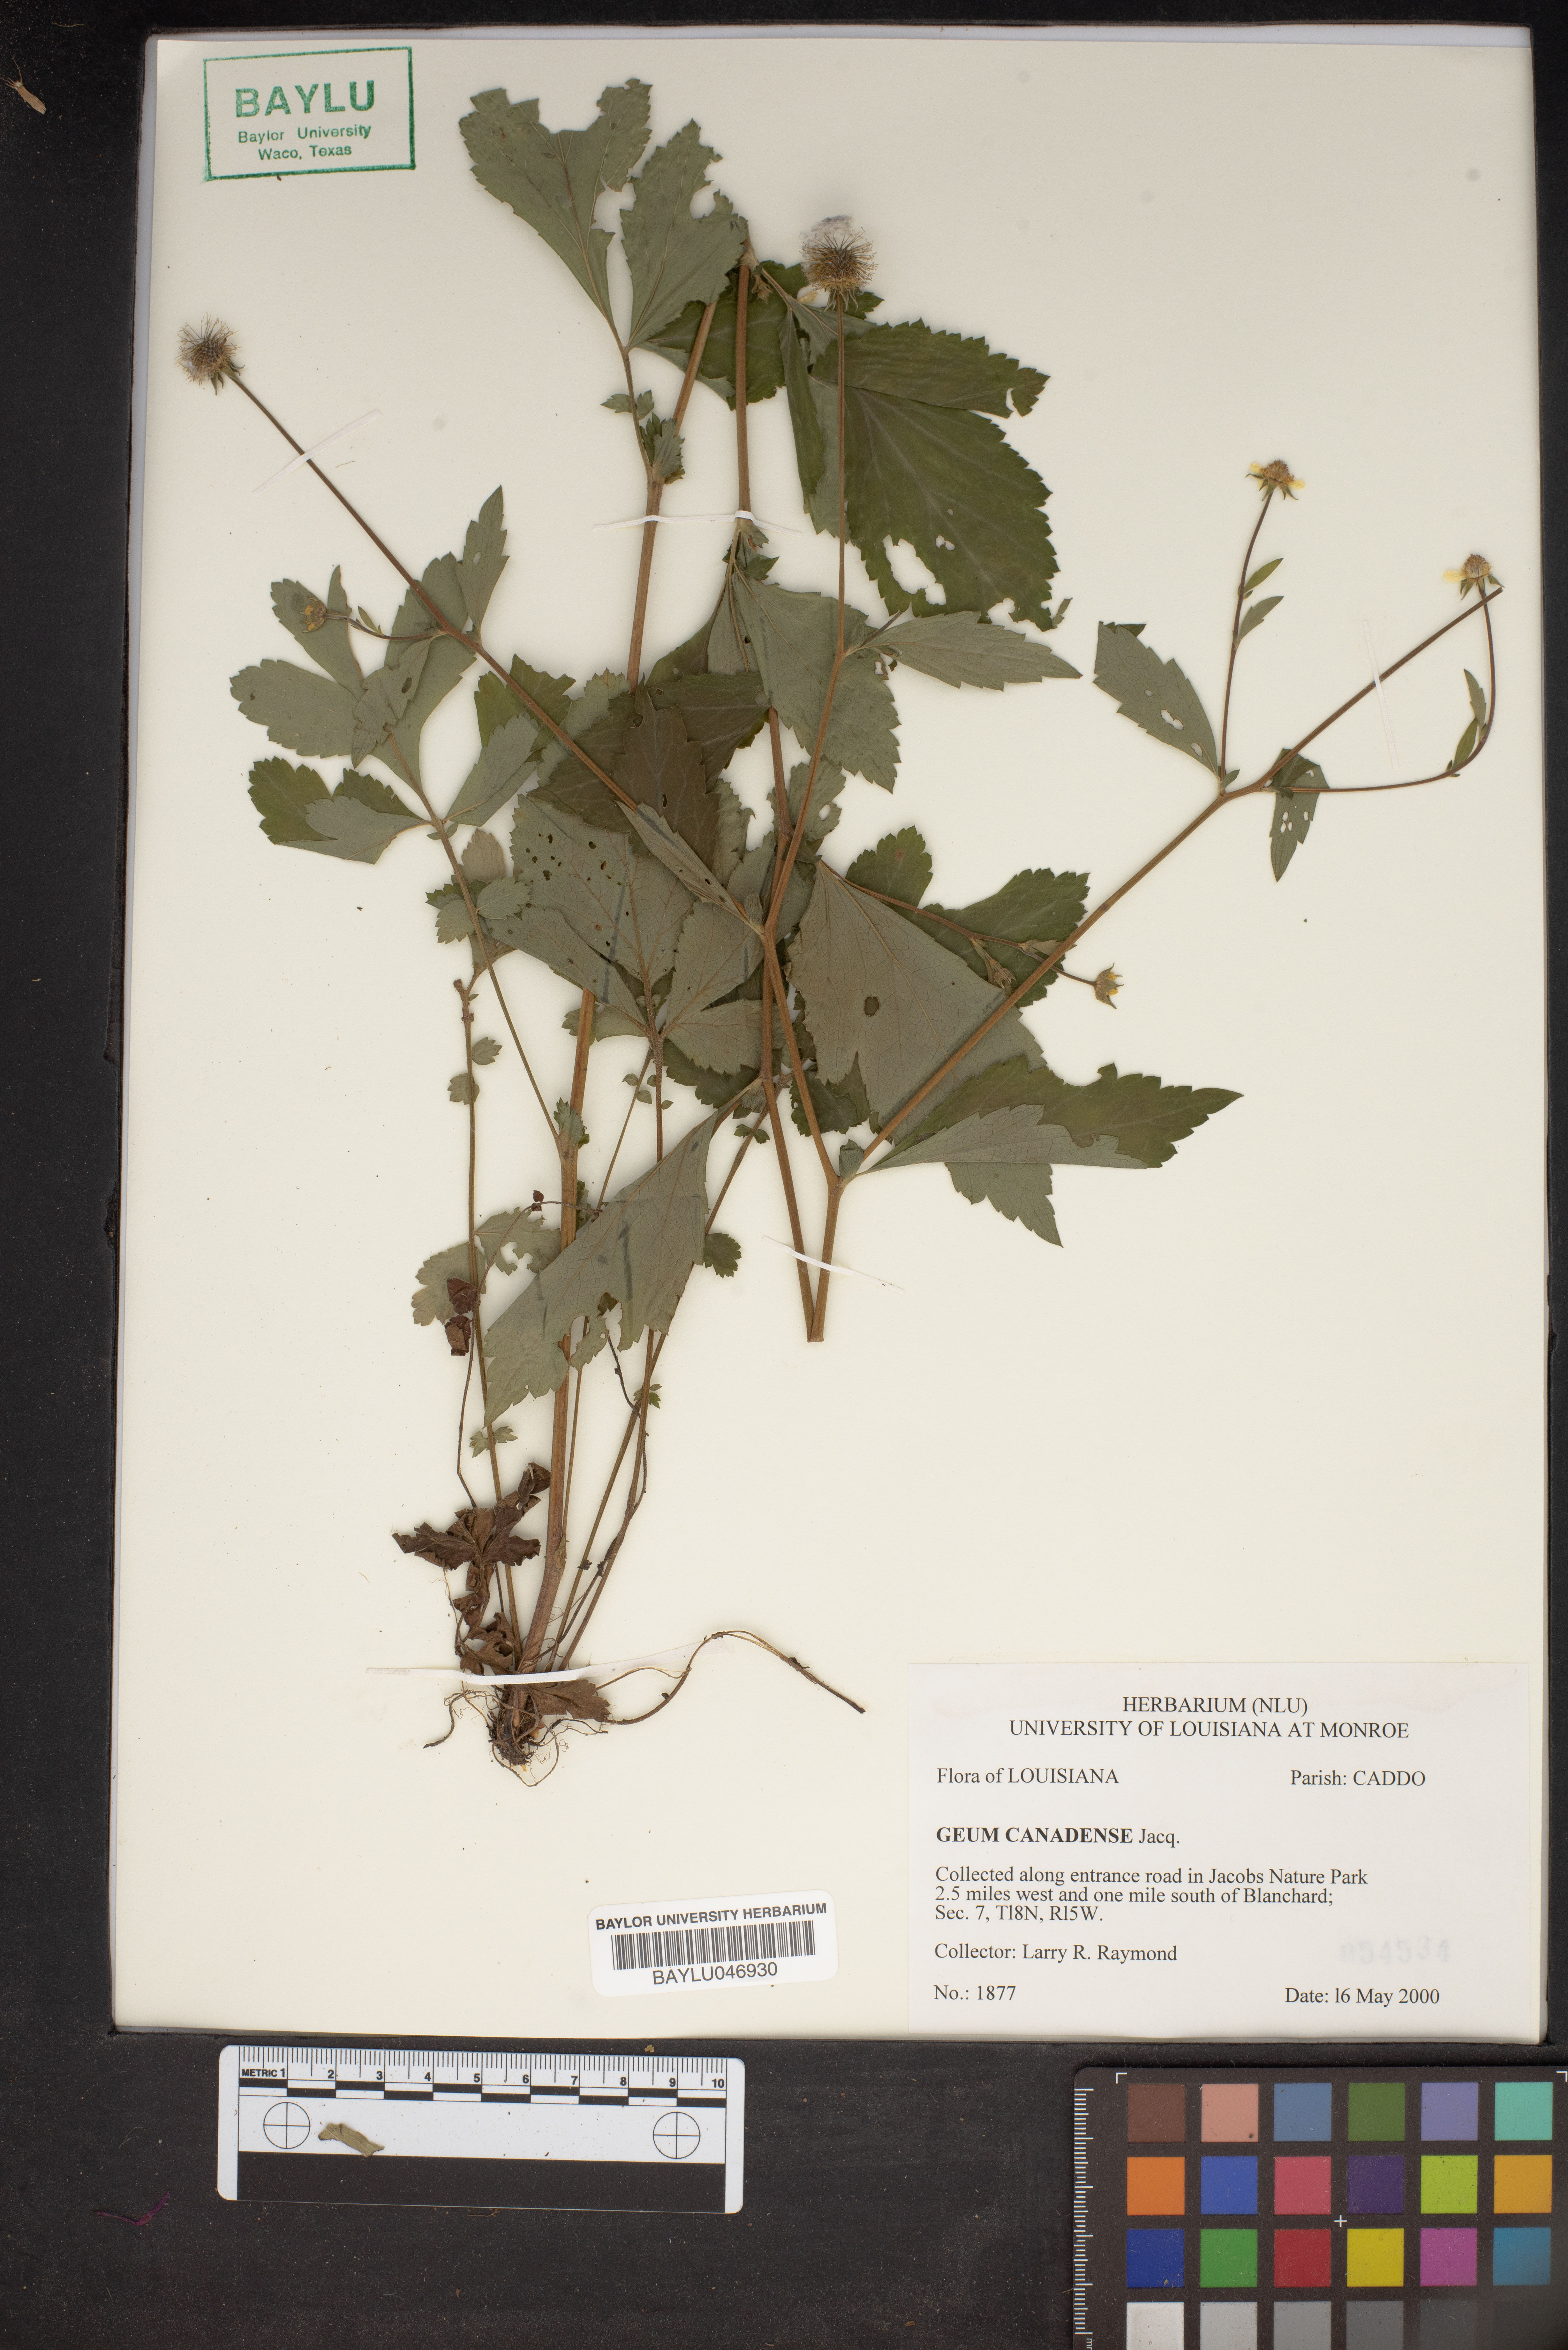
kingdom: Plantae
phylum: Tracheophyta
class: Magnoliopsida
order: Rosales
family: Rosaceae
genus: Geum
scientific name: Geum canadense
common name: White avens
